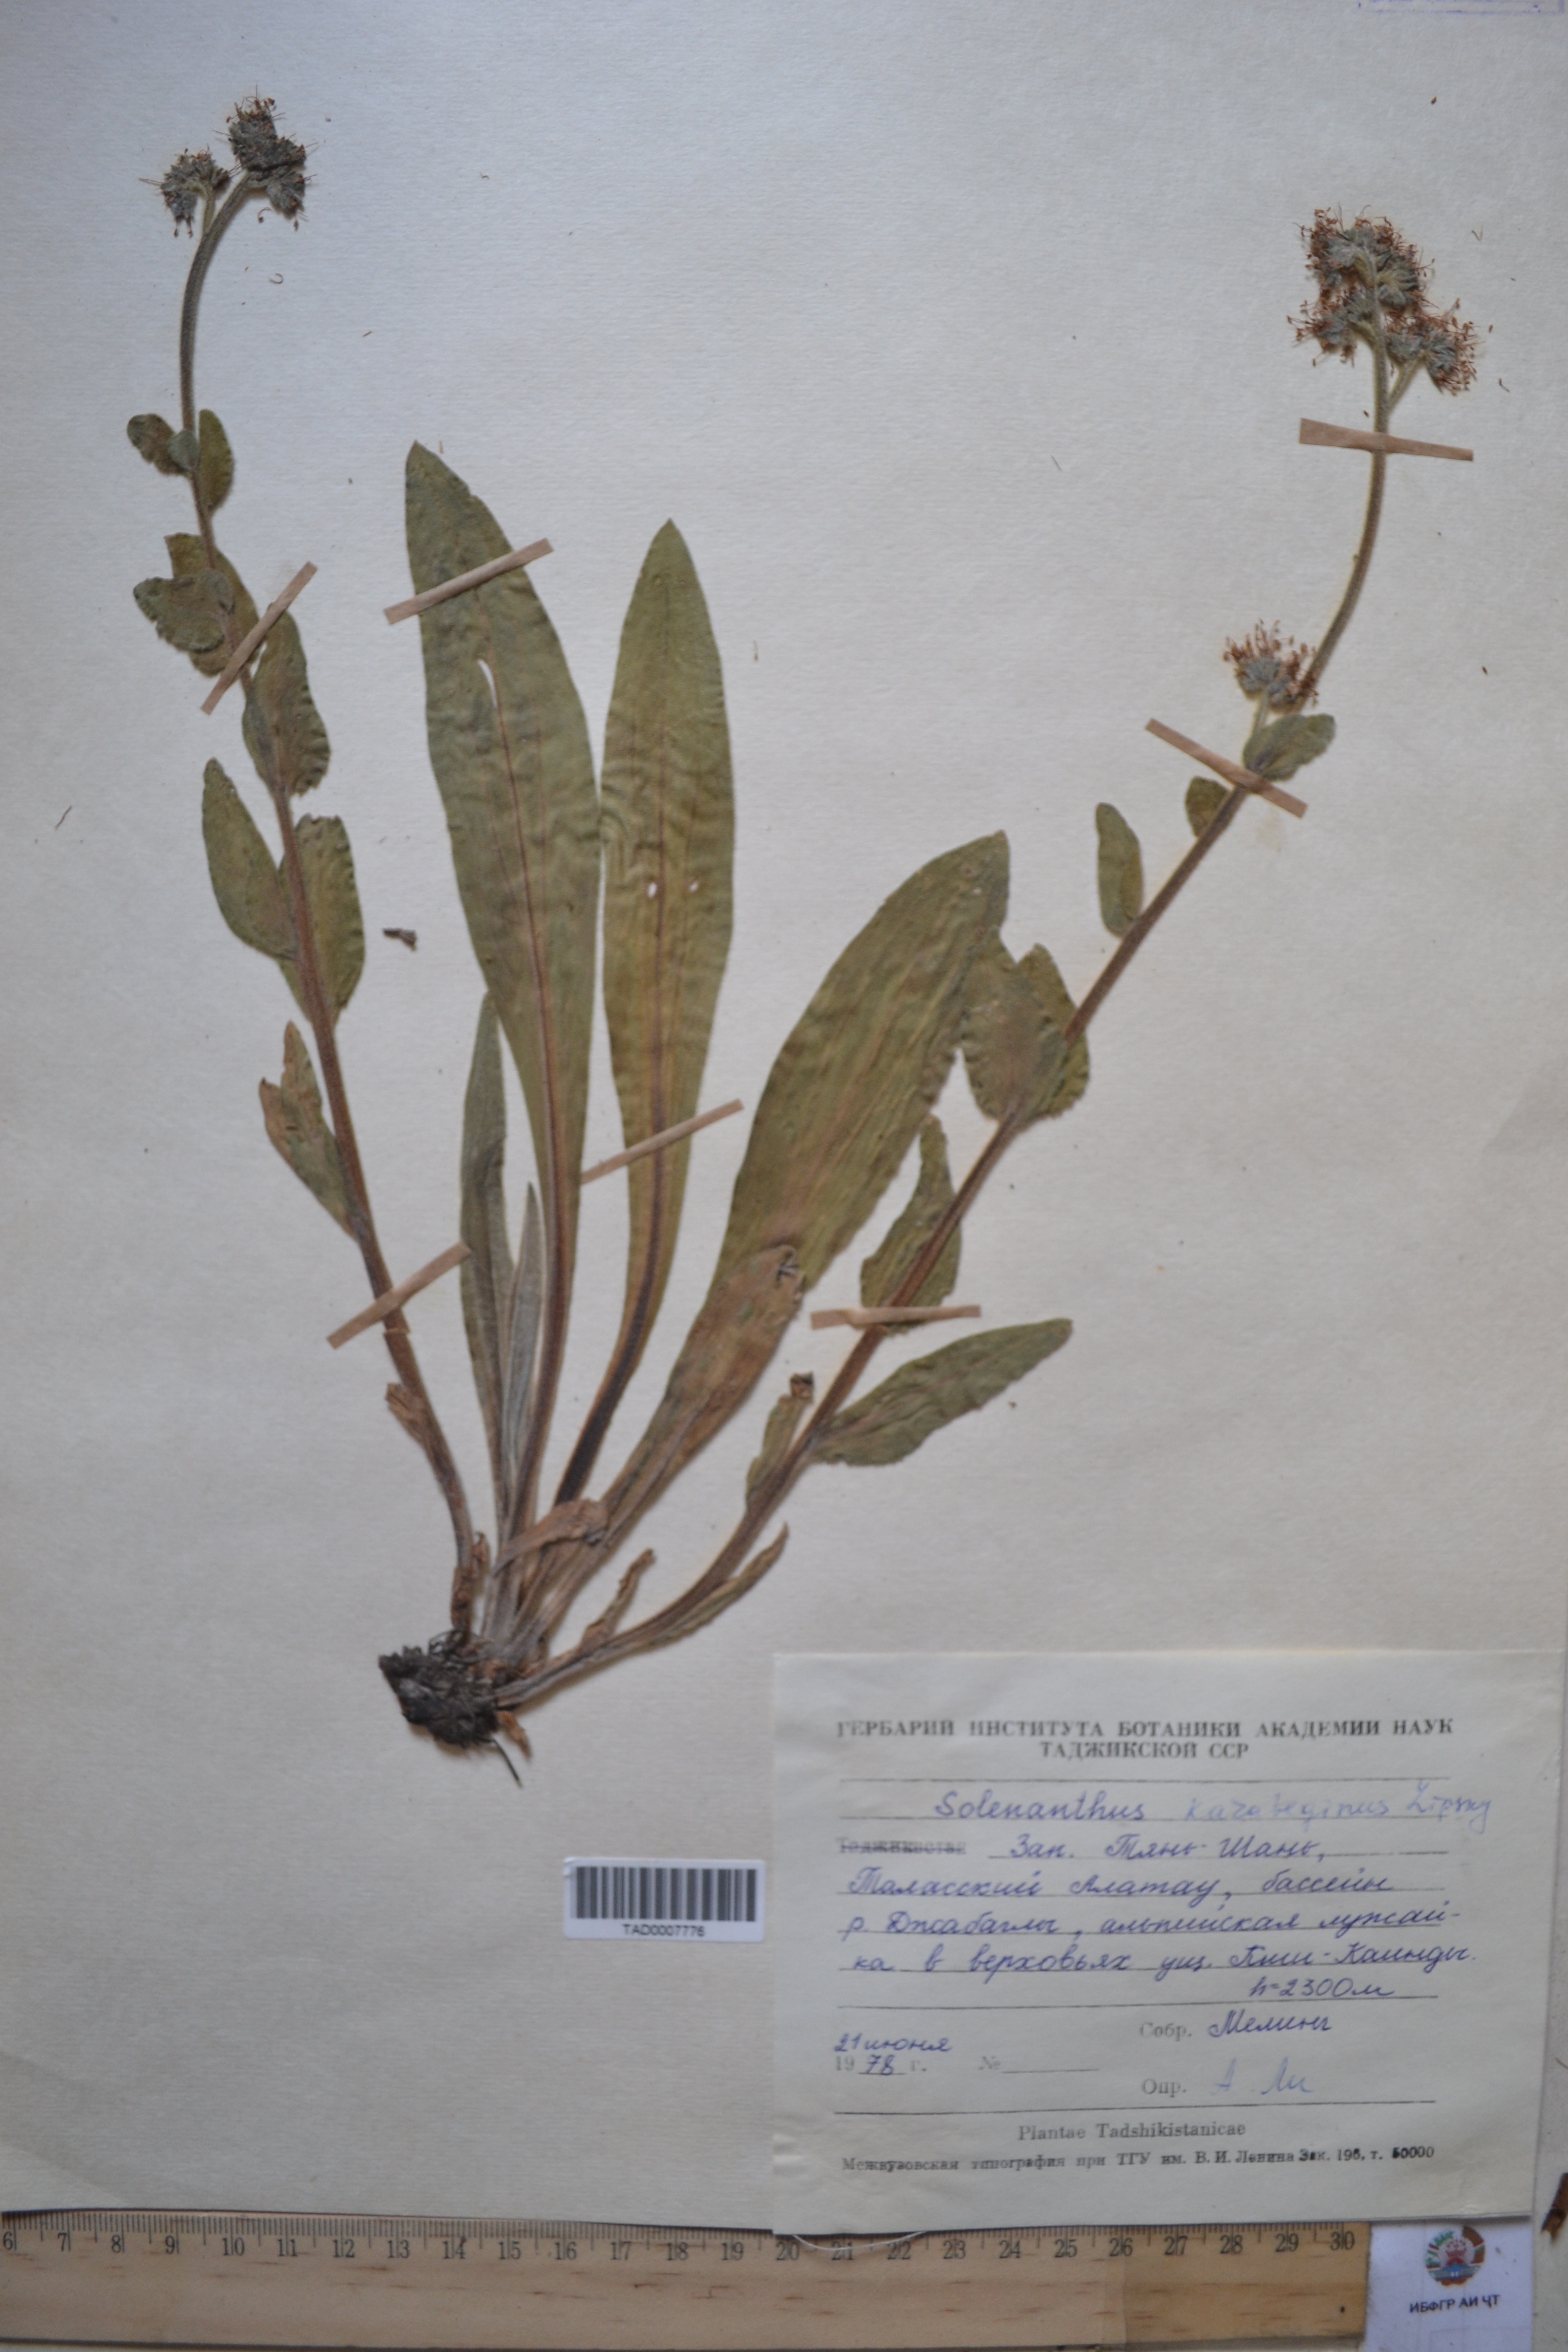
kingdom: Plantae
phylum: Tracheophyta
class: Magnoliopsida
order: Boraginales
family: Boraginaceae
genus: Solenanthus
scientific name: Solenanthus karateginus
